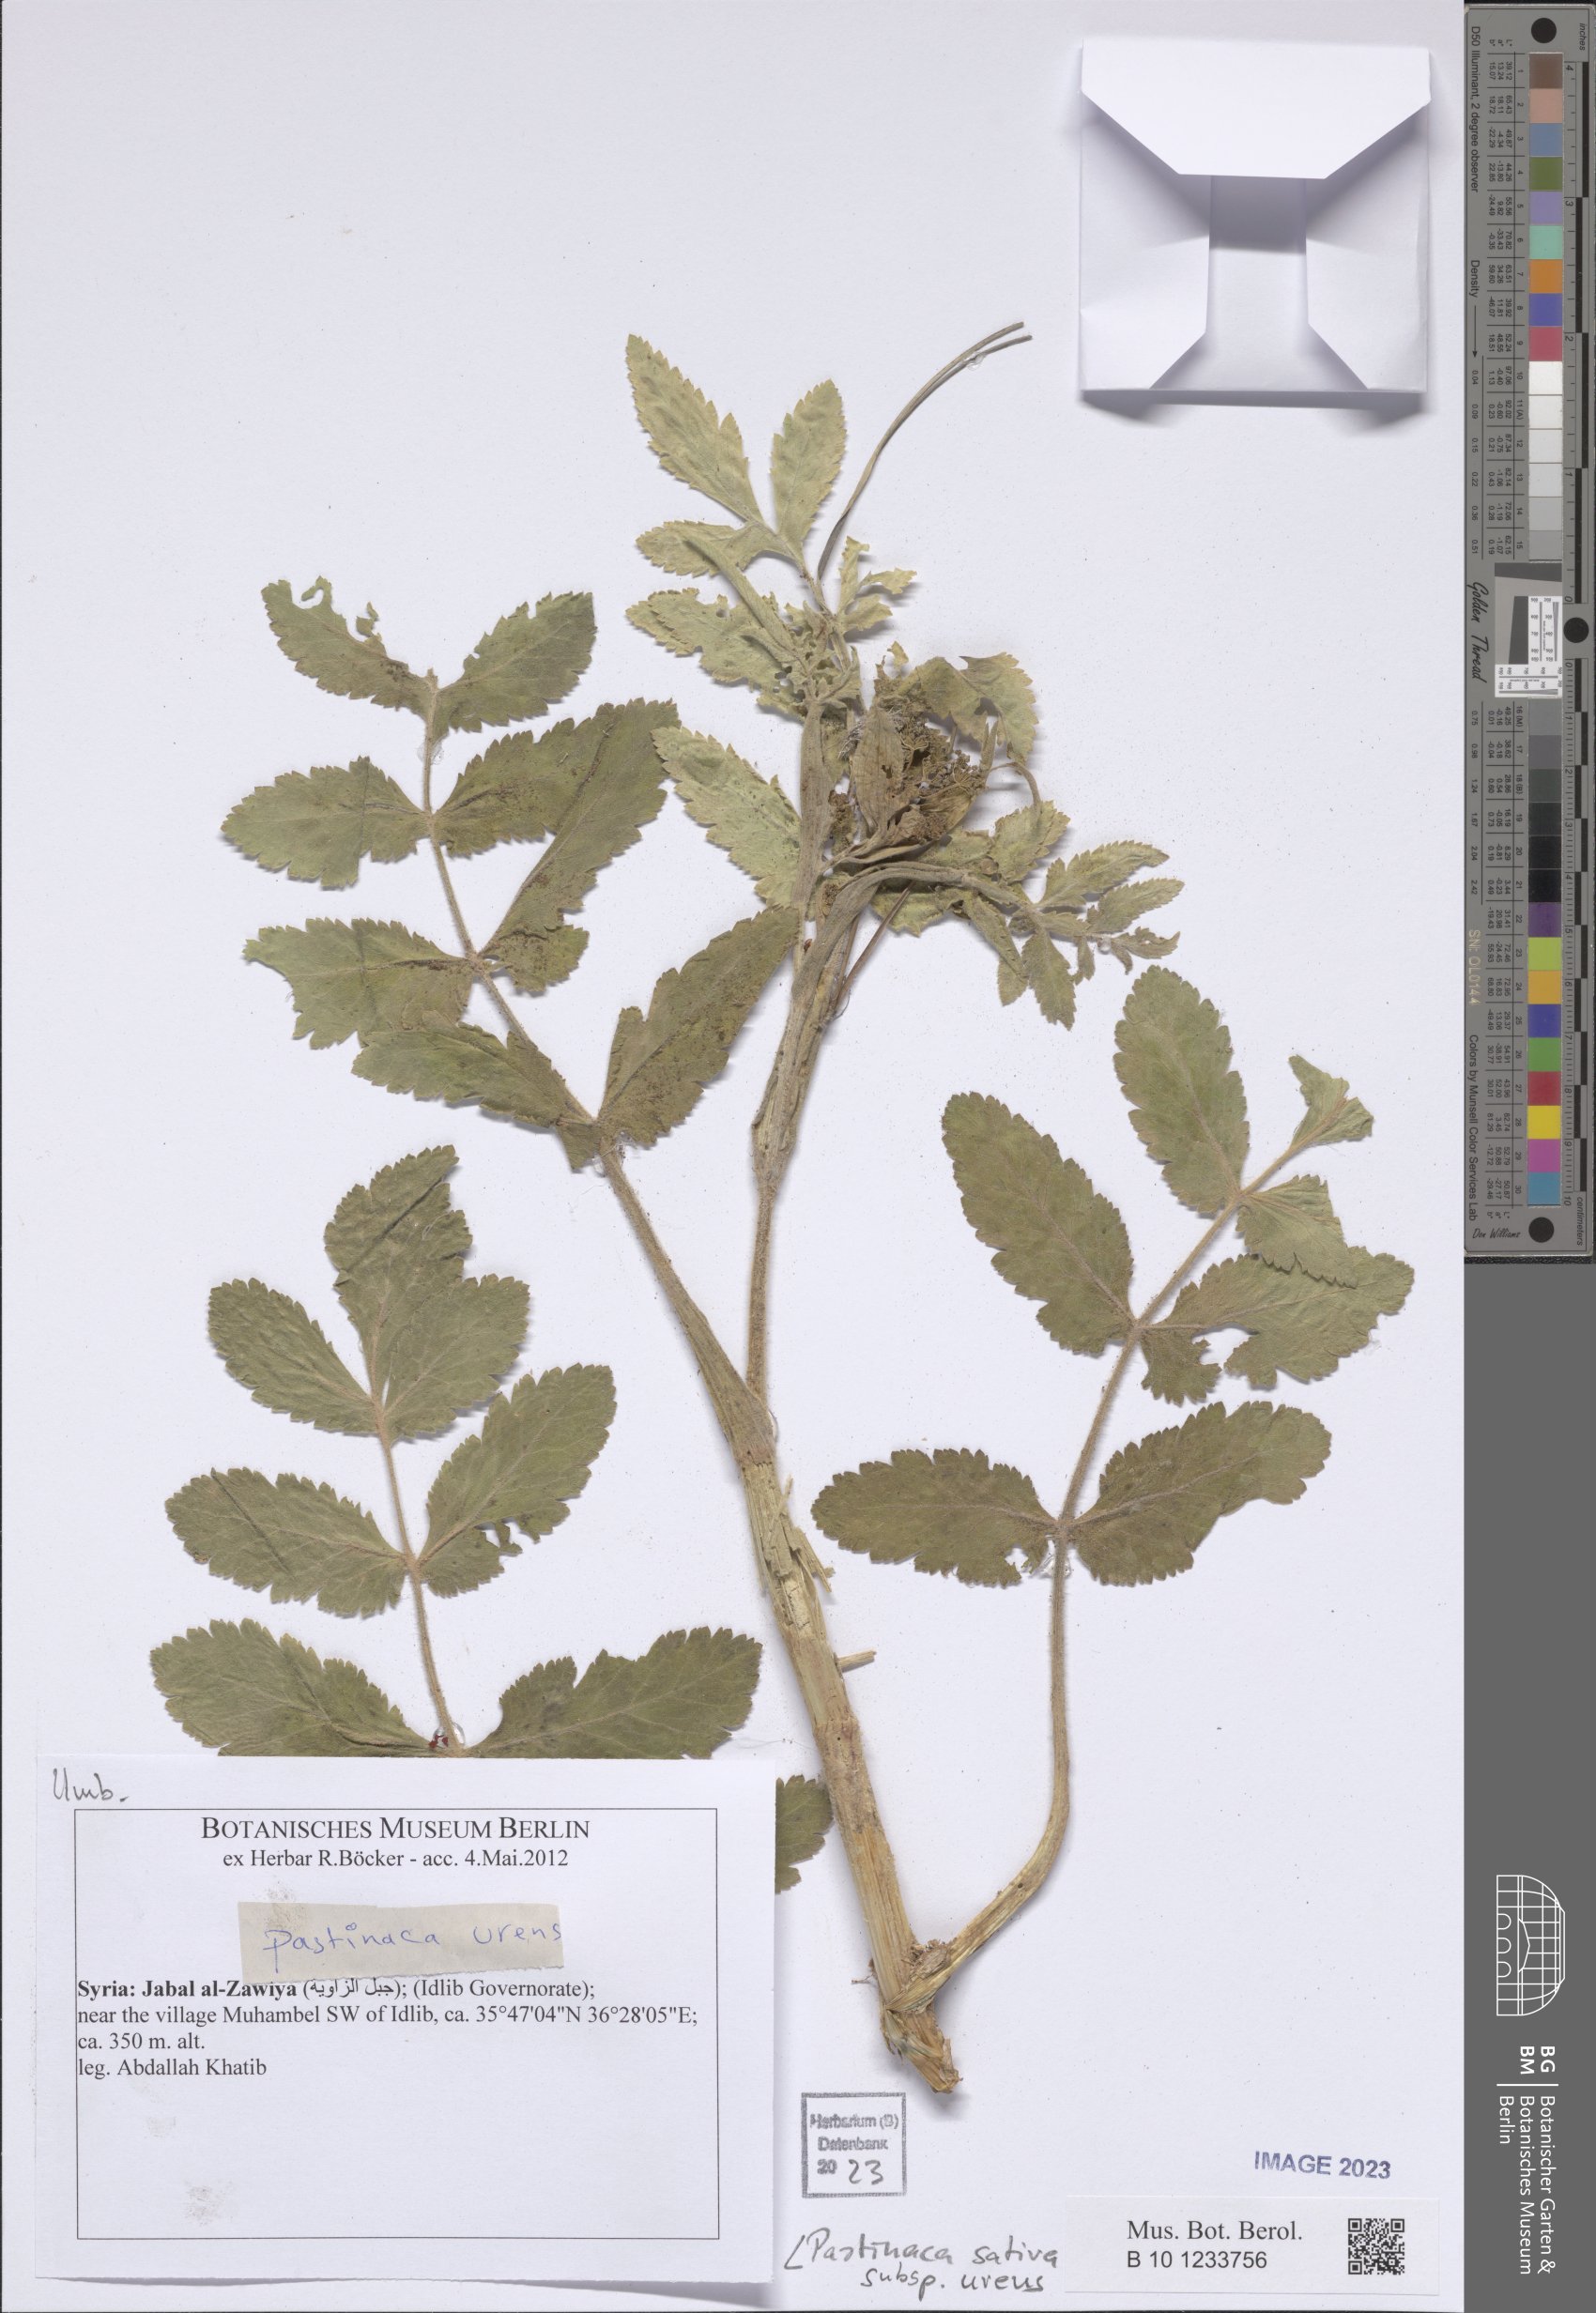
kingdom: Plantae
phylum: Tracheophyta
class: Magnoliopsida
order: Apiales
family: Apiaceae
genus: Pastinaca
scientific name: Pastinaca sativa
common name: Wild parsnip
